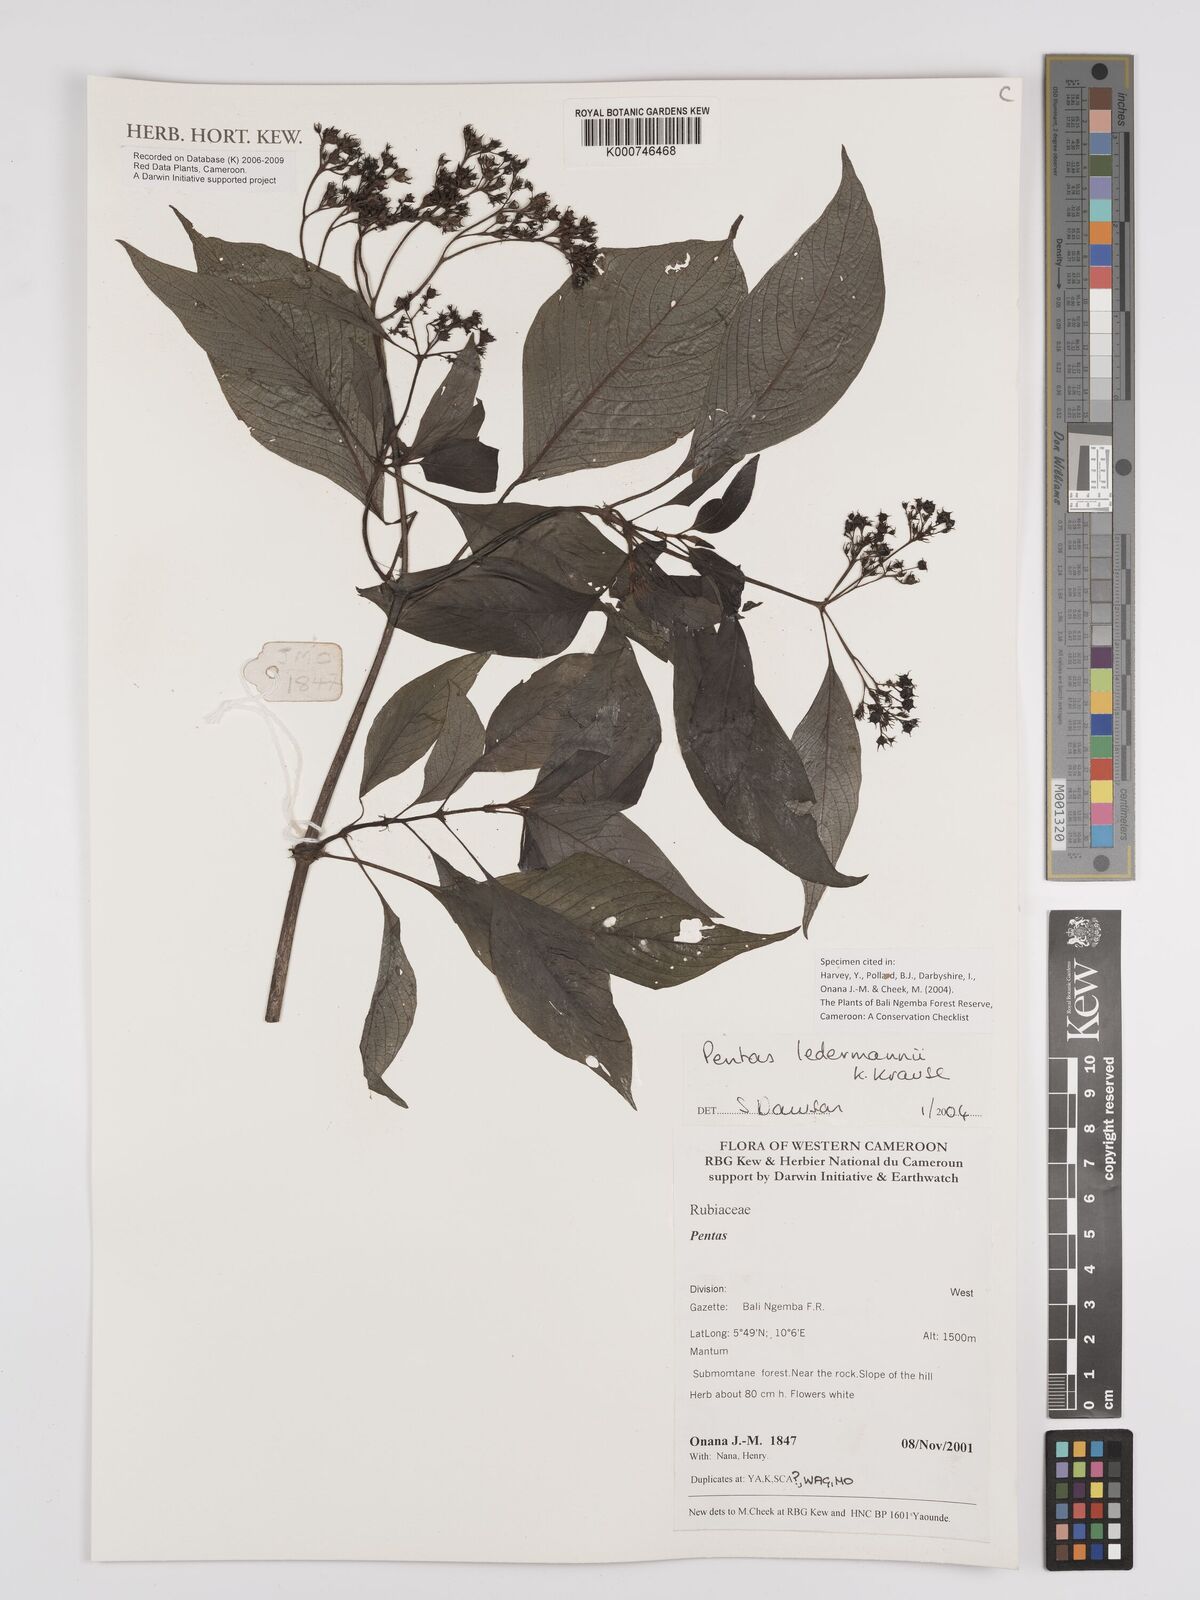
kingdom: Plantae
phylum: Tracheophyta
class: Magnoliopsida
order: Gentianales
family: Rubiaceae
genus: Phyllopentas
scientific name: Phyllopentas ledermannii
